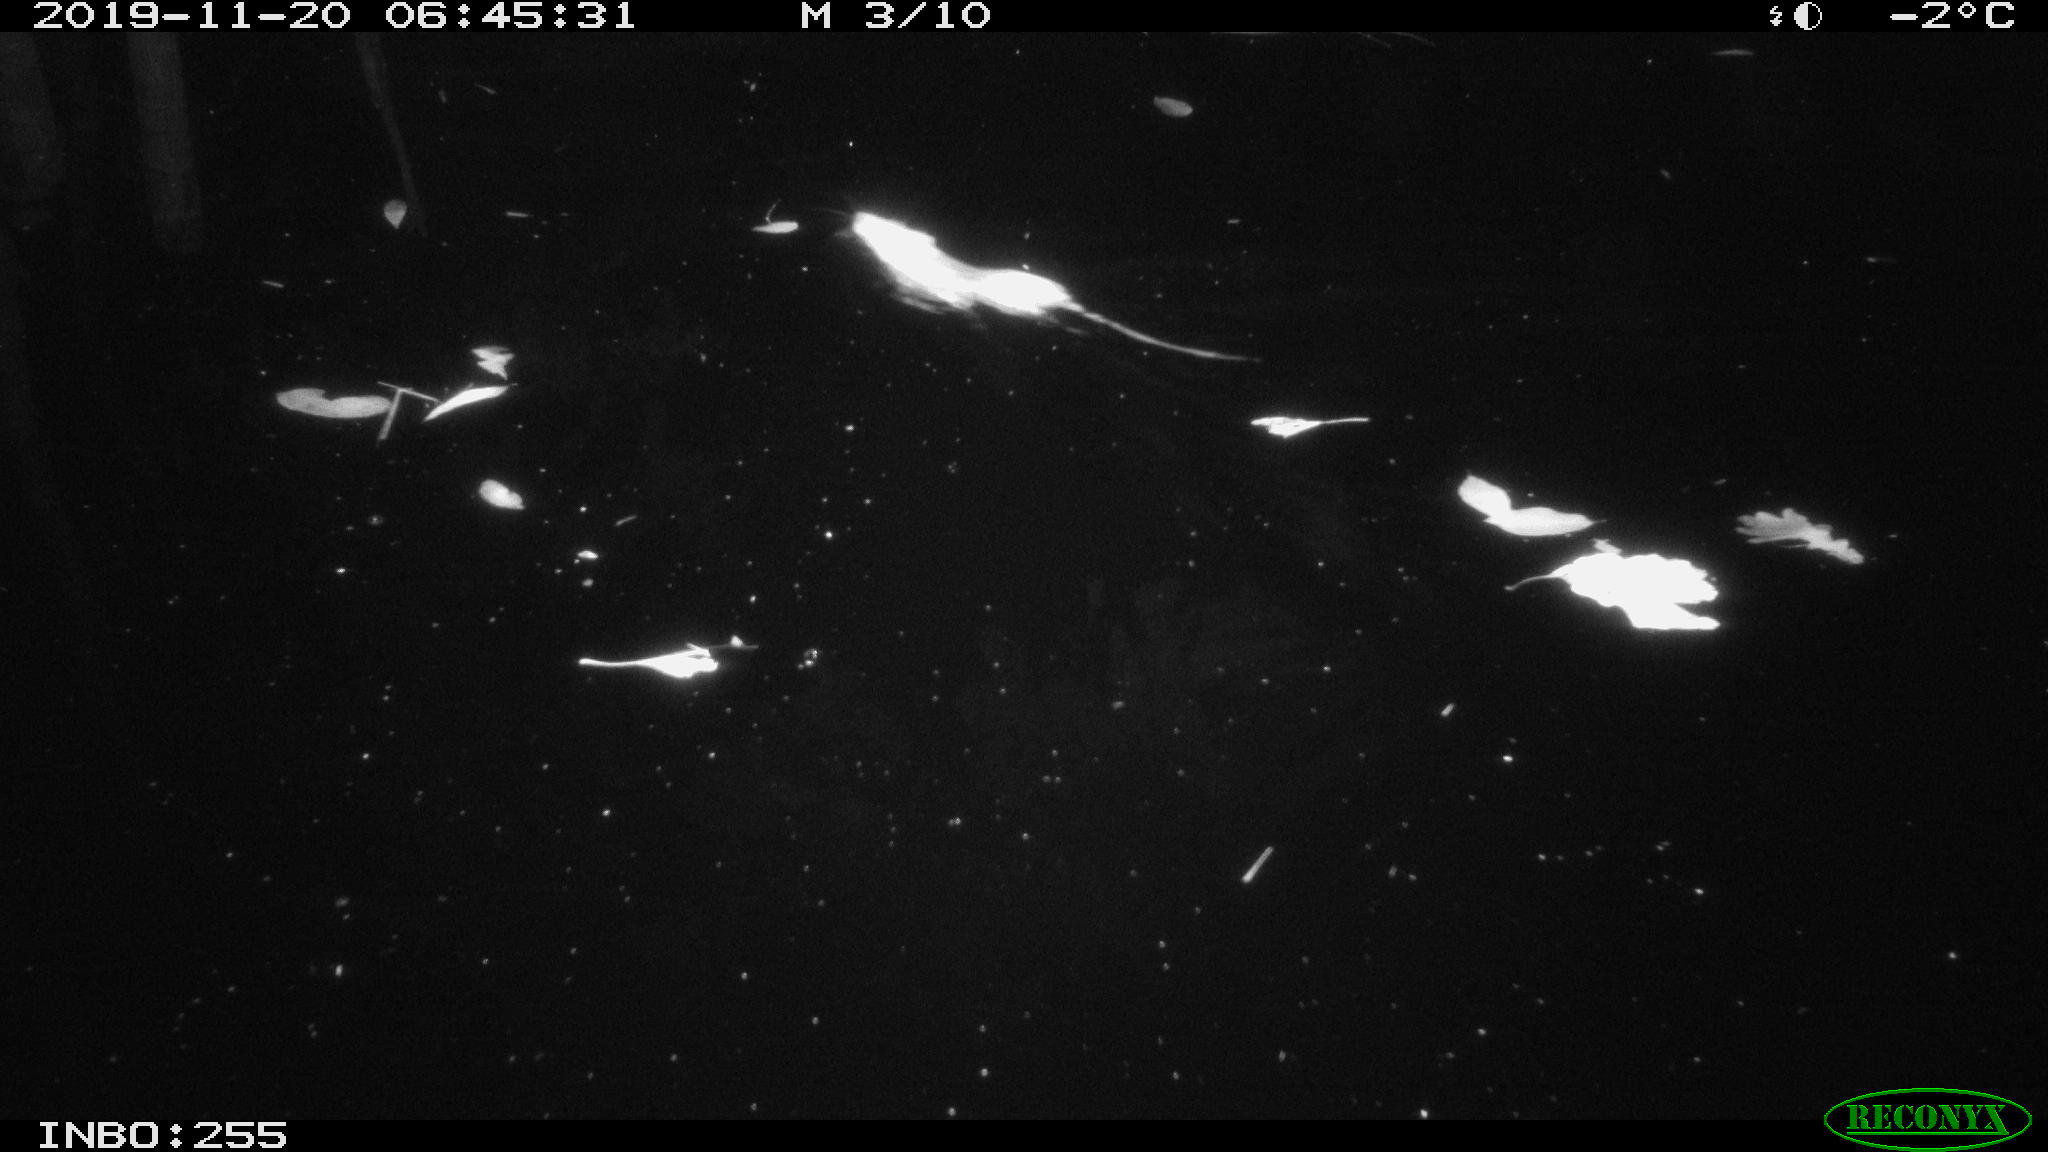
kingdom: Animalia
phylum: Chordata
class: Mammalia
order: Rodentia
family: Muridae
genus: Rattus
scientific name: Rattus norvegicus
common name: Brown rat
